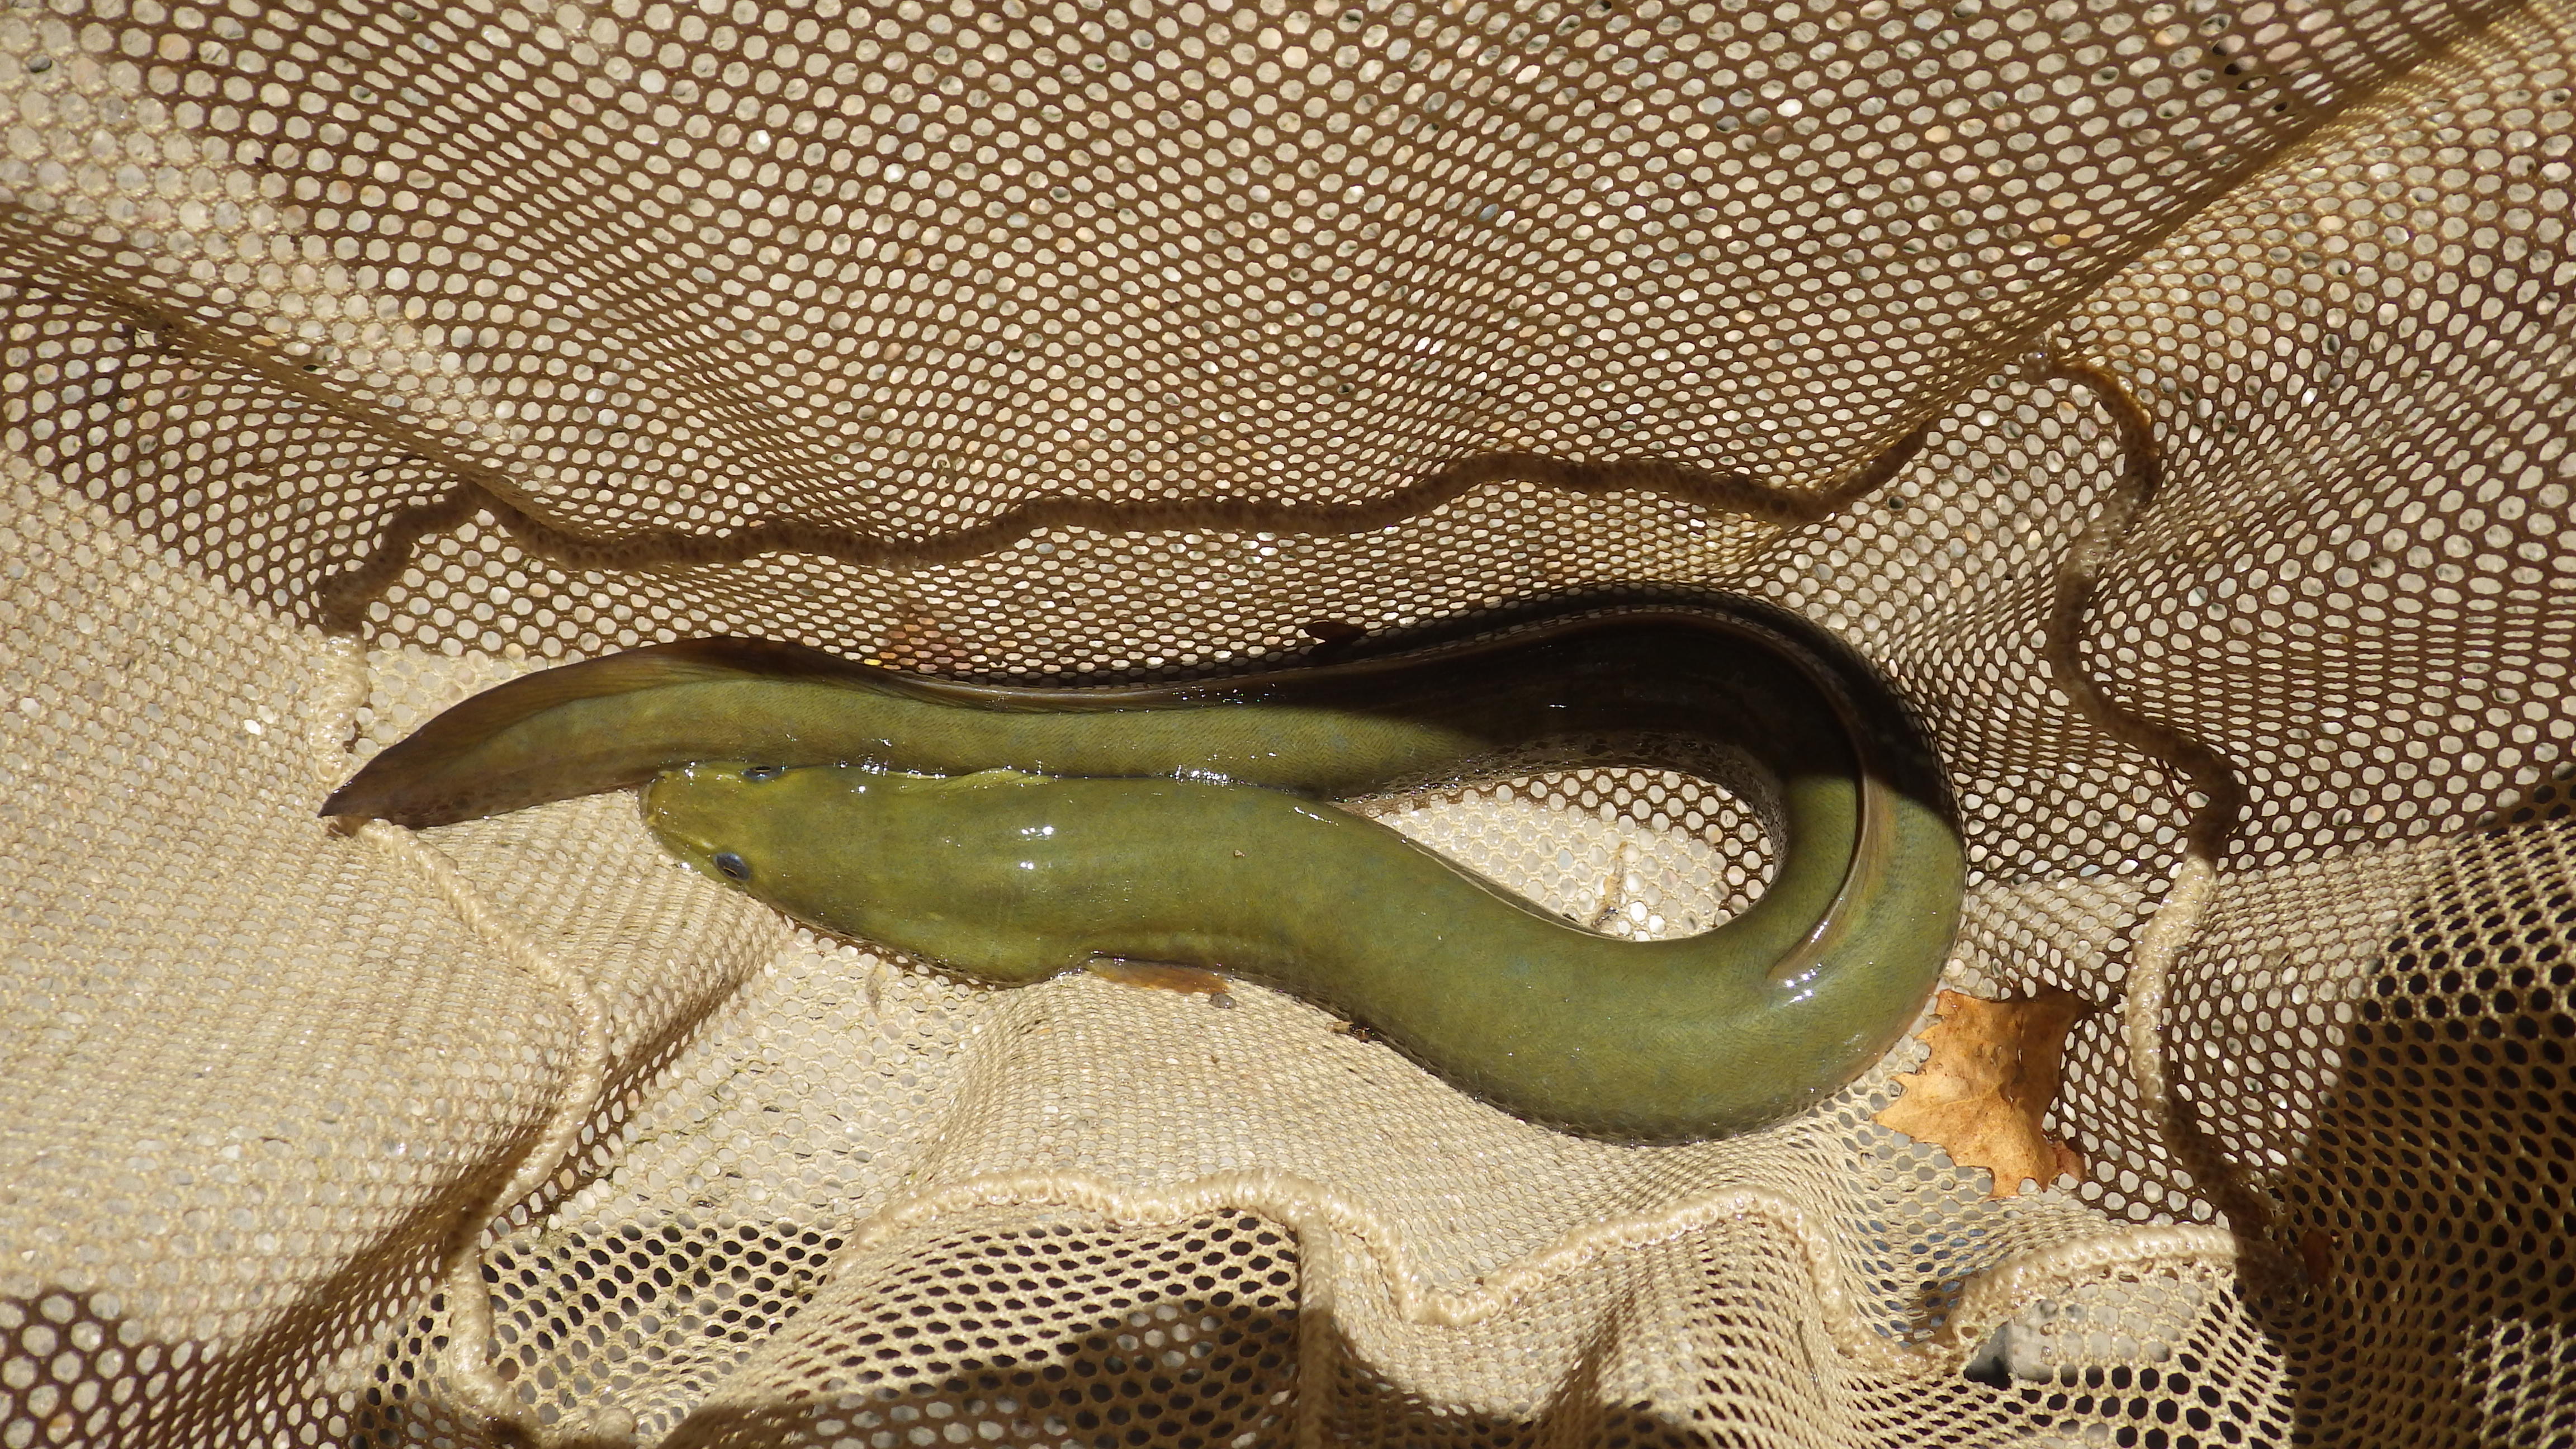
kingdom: Animalia
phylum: Chordata
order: Anguilliformes
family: Anguillidae
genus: Anguilla
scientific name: Anguilla rostrata
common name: American eel
